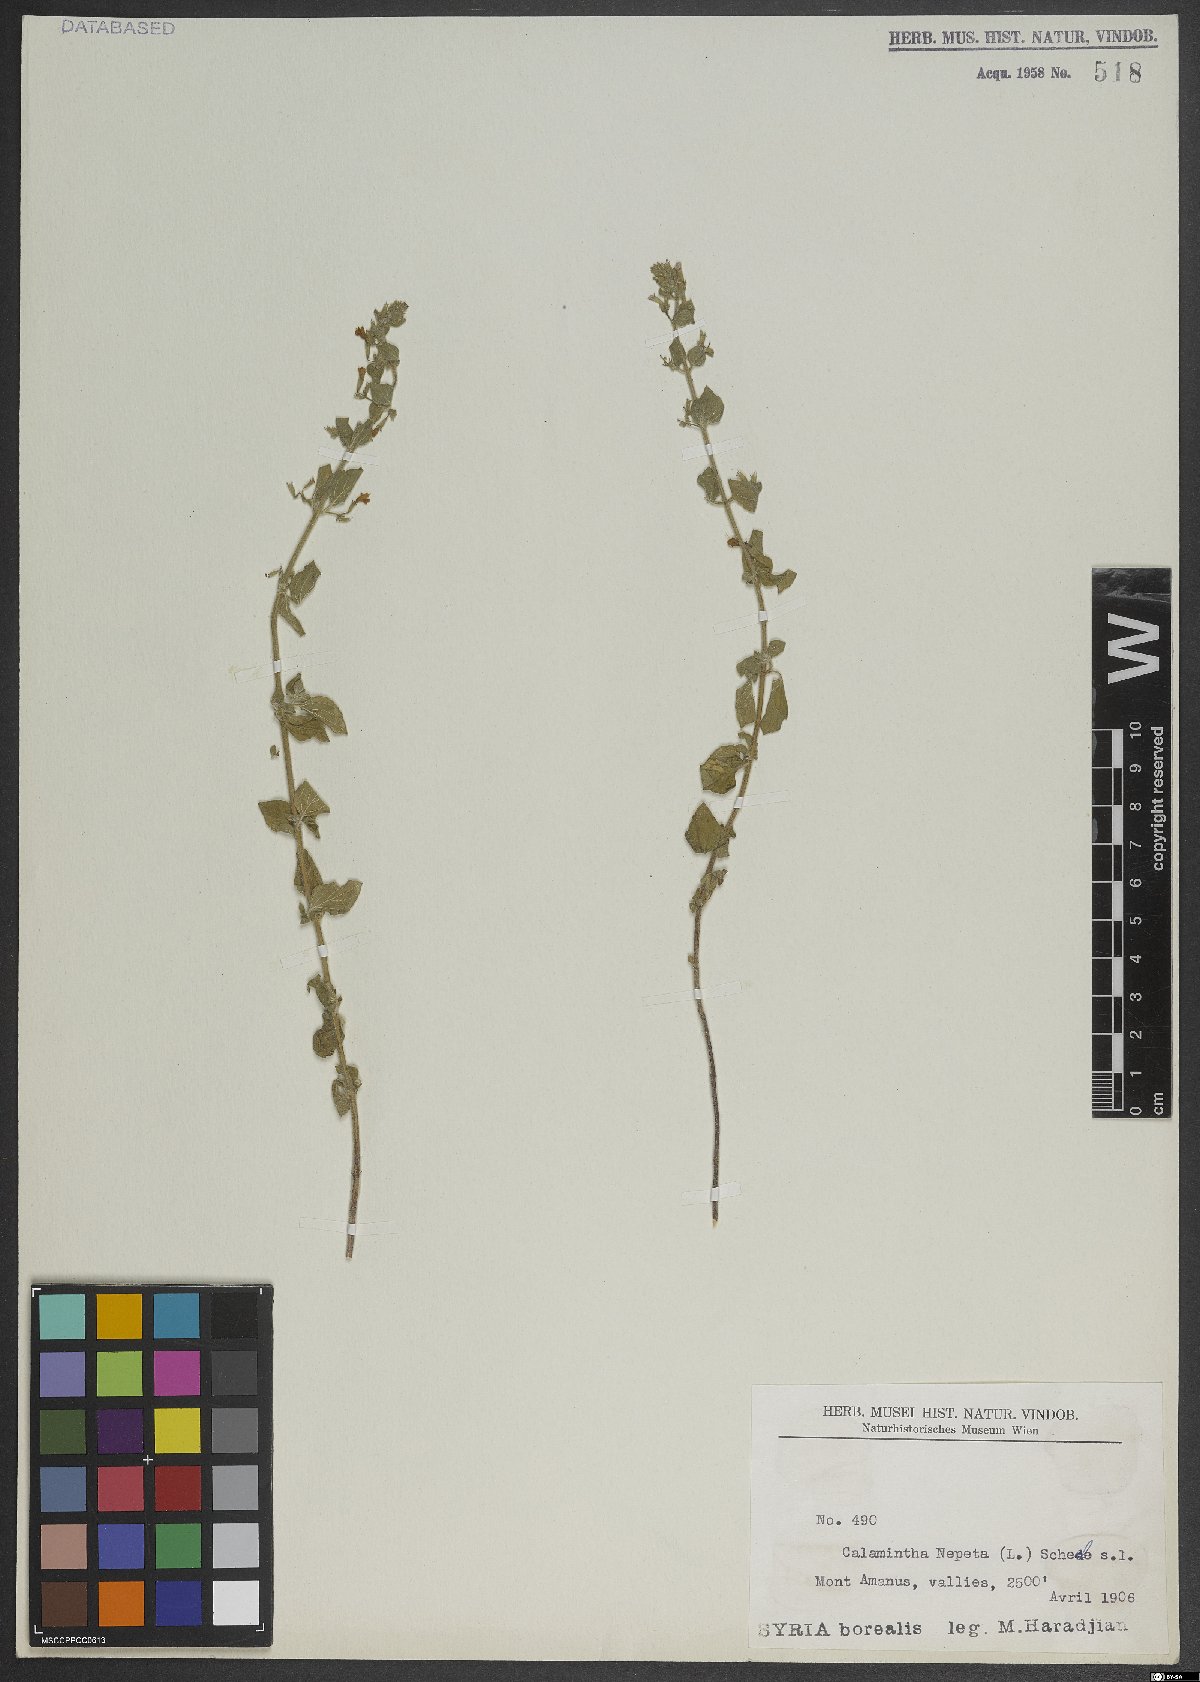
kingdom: Plantae
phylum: Tracheophyta
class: Magnoliopsida
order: Lamiales
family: Lamiaceae
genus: Clinopodium
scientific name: Clinopodium nepeta
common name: Lesser calamint
